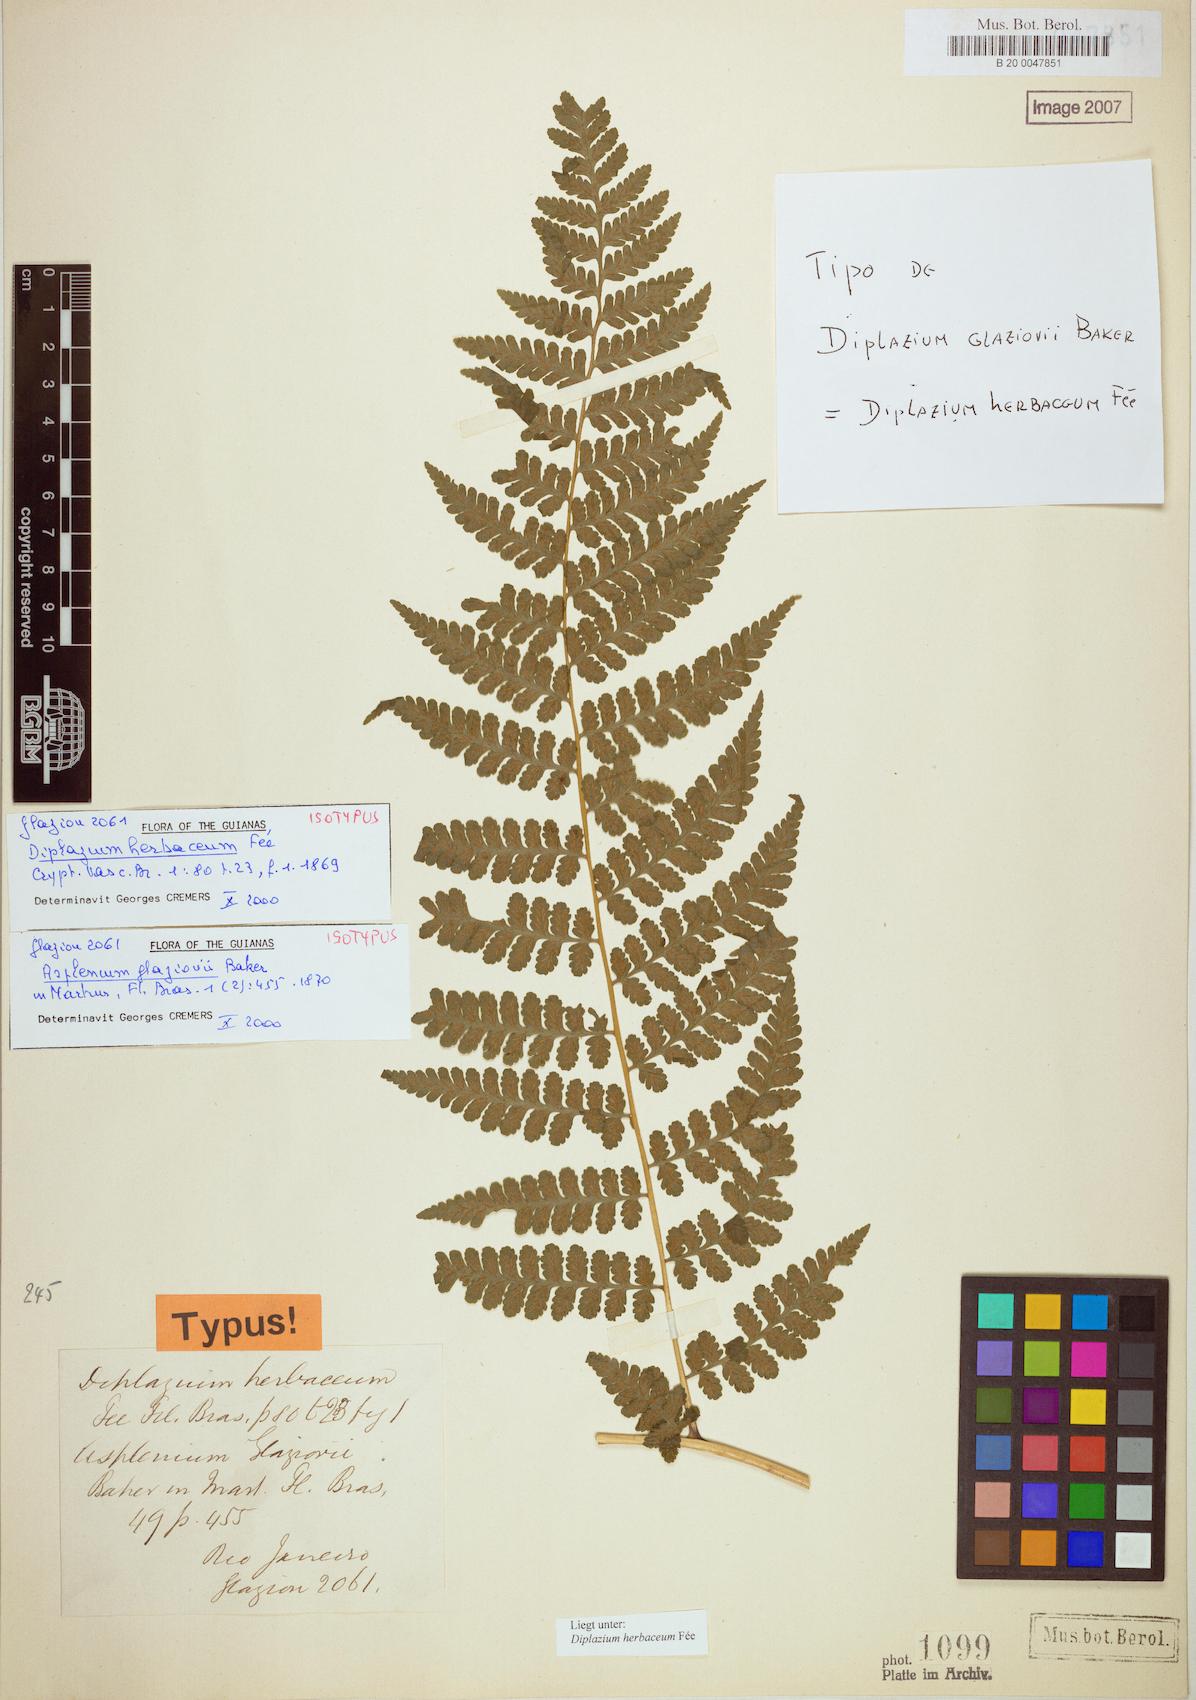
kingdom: Plantae
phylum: Tracheophyta
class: Polypodiopsida
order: Polypodiales
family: Athyriaceae
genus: Diplazium
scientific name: Diplazium herbaceum
